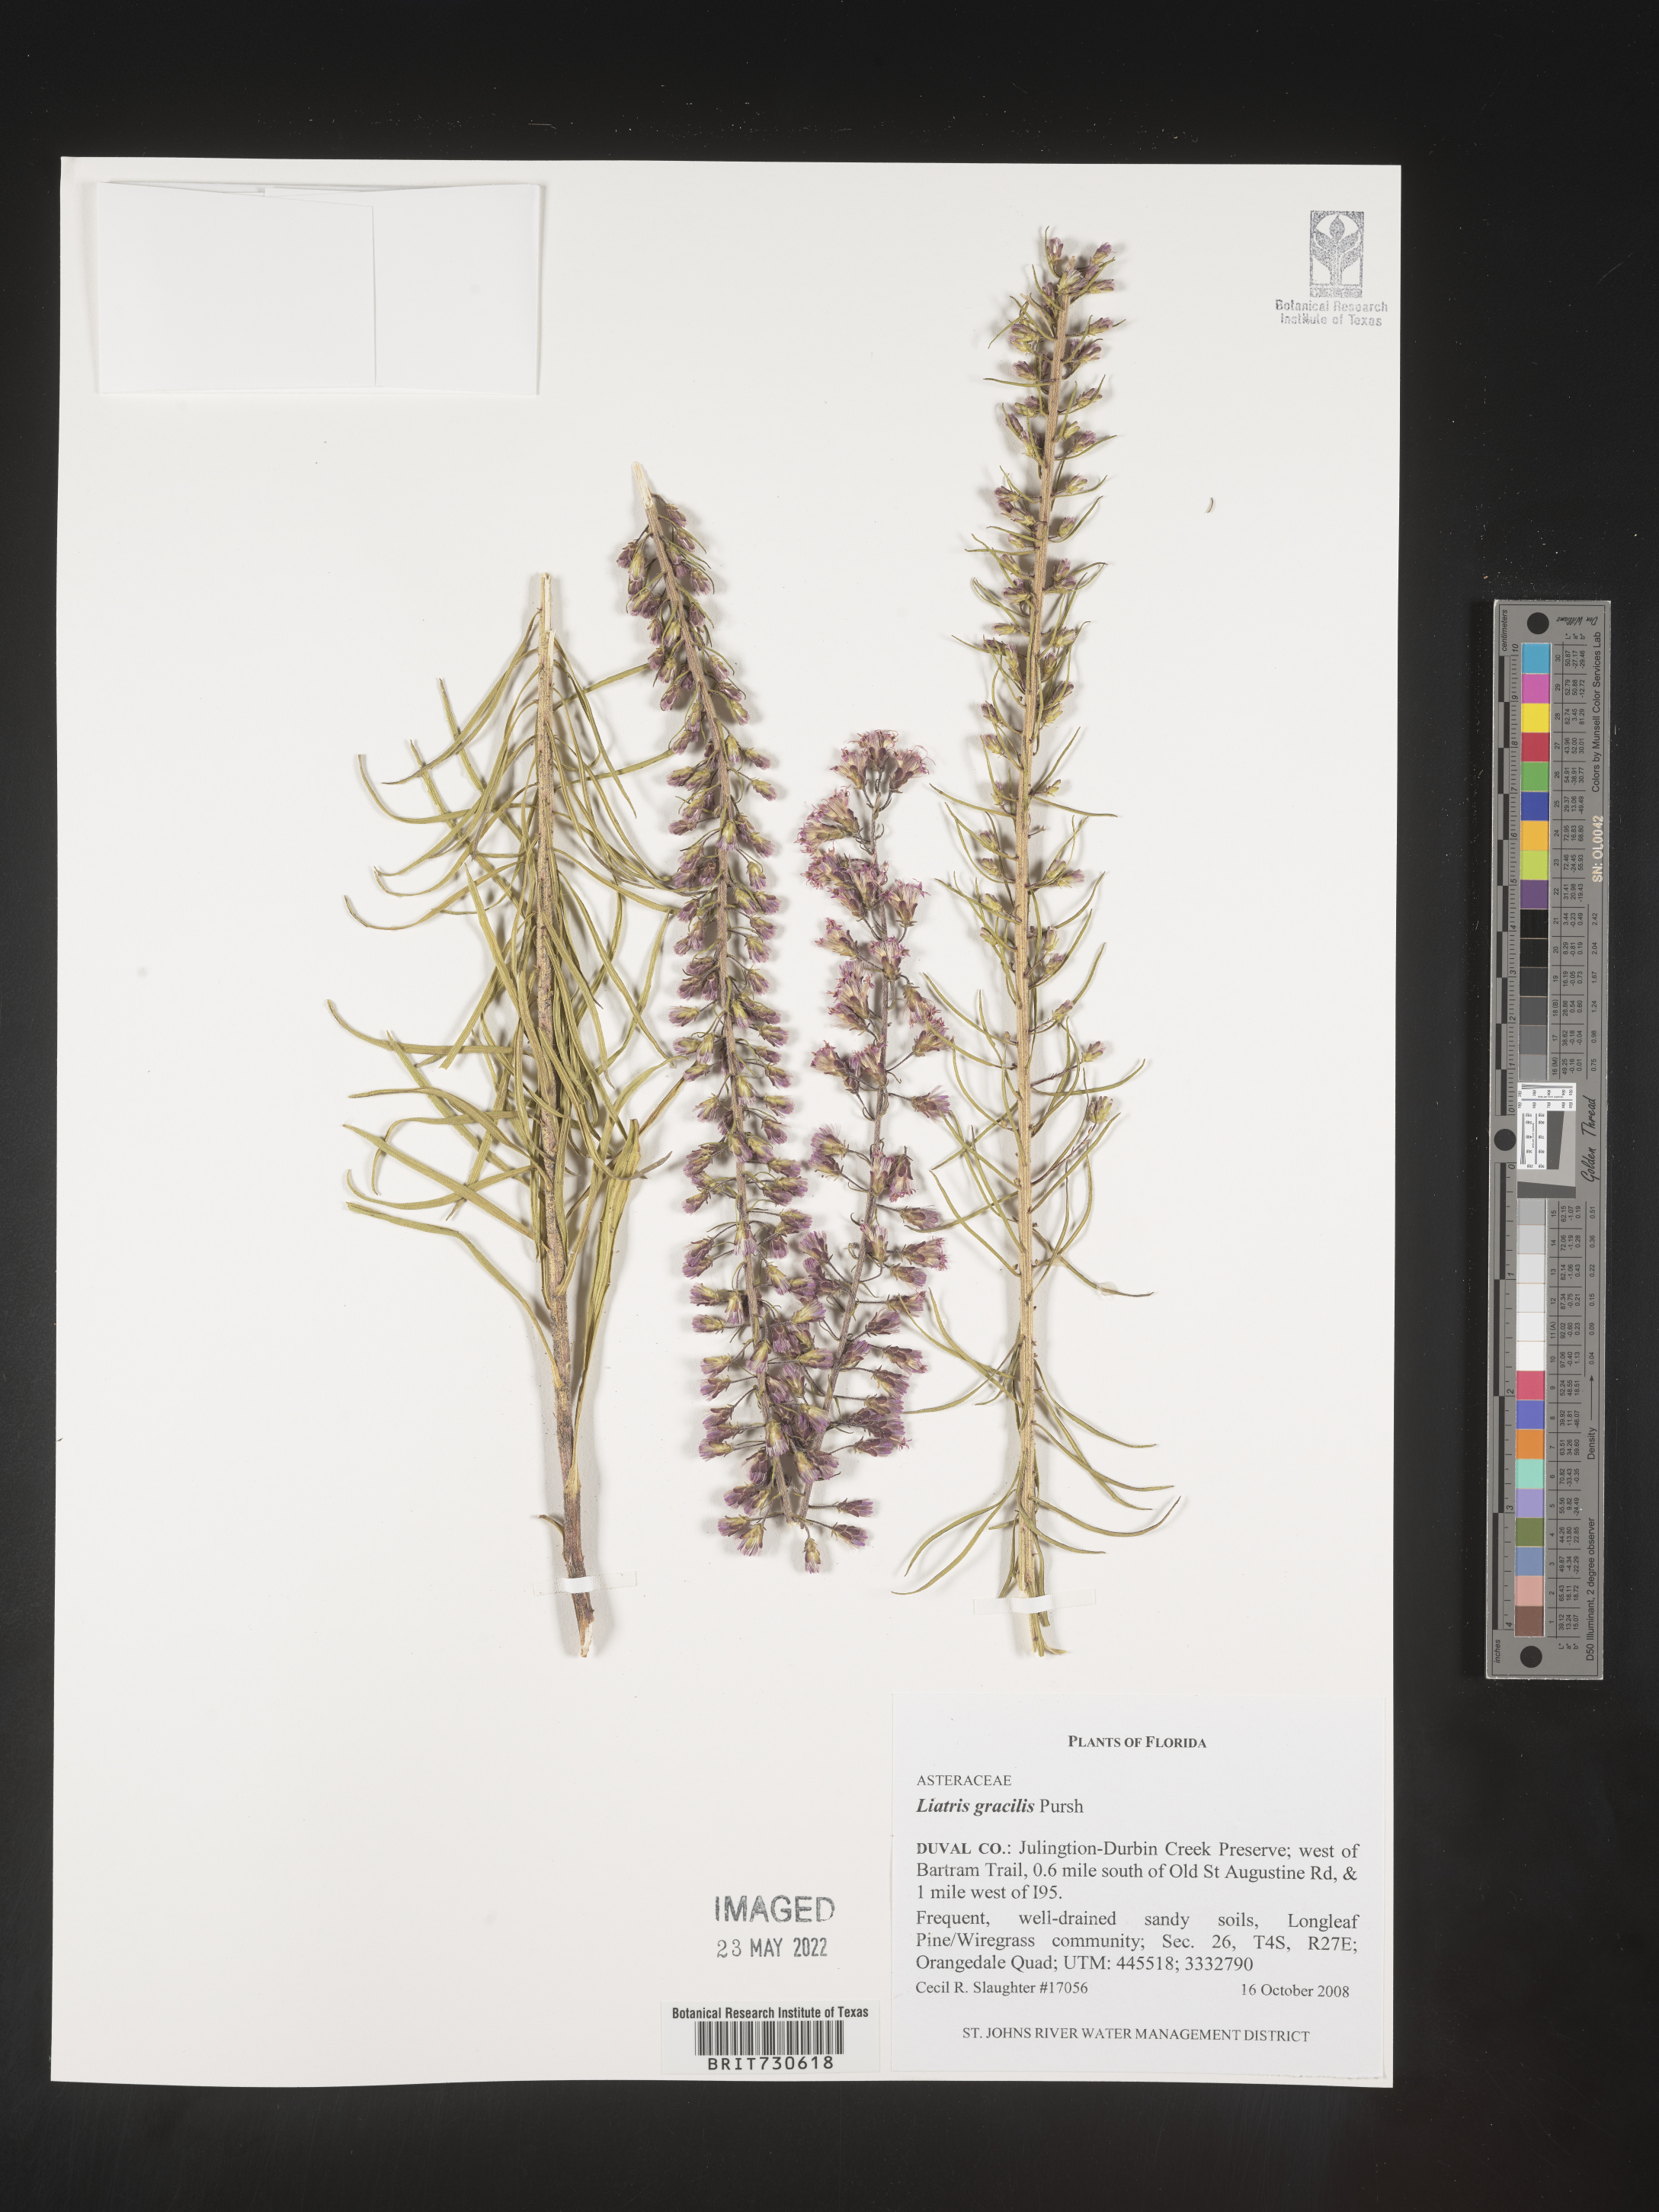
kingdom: Plantae
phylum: Tracheophyta
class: Magnoliopsida
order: Asterales
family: Asteraceae
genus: Liatris
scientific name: Liatris gracilis
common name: Slender gayfeather
